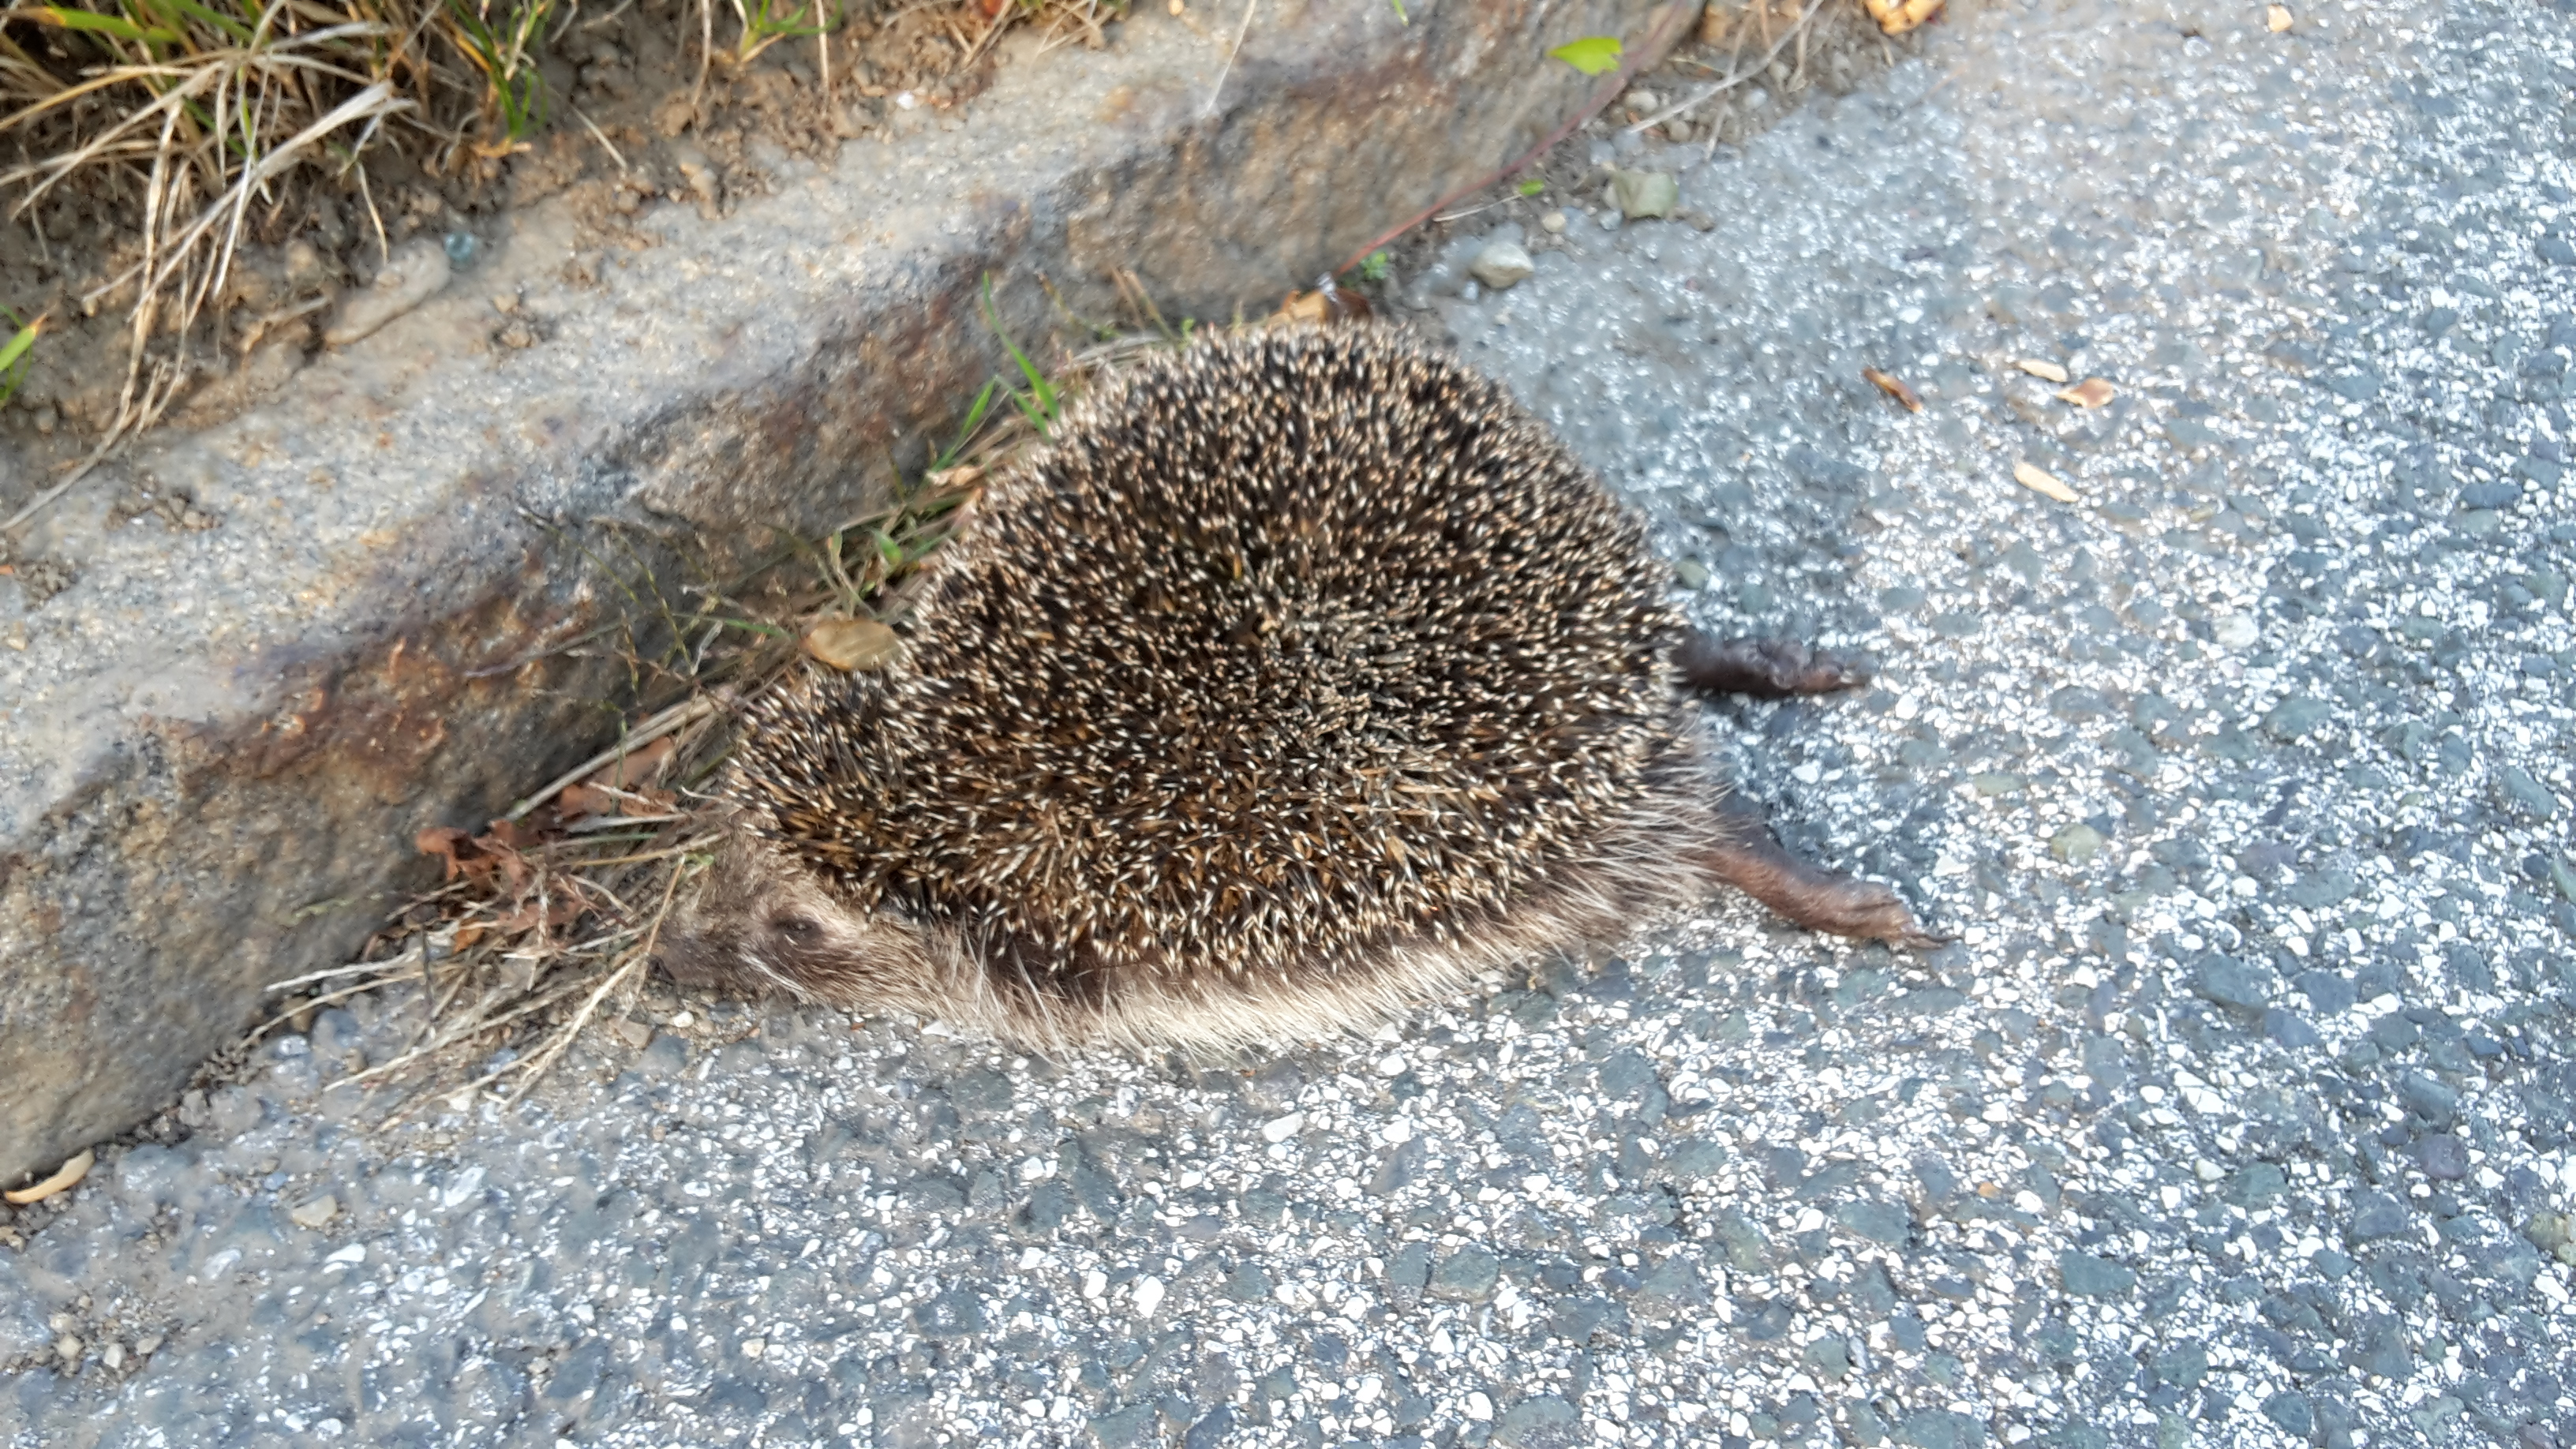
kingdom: Animalia
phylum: Chordata
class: Mammalia
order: Erinaceomorpha
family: Erinaceidae
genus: Erinaceus
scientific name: Erinaceus
